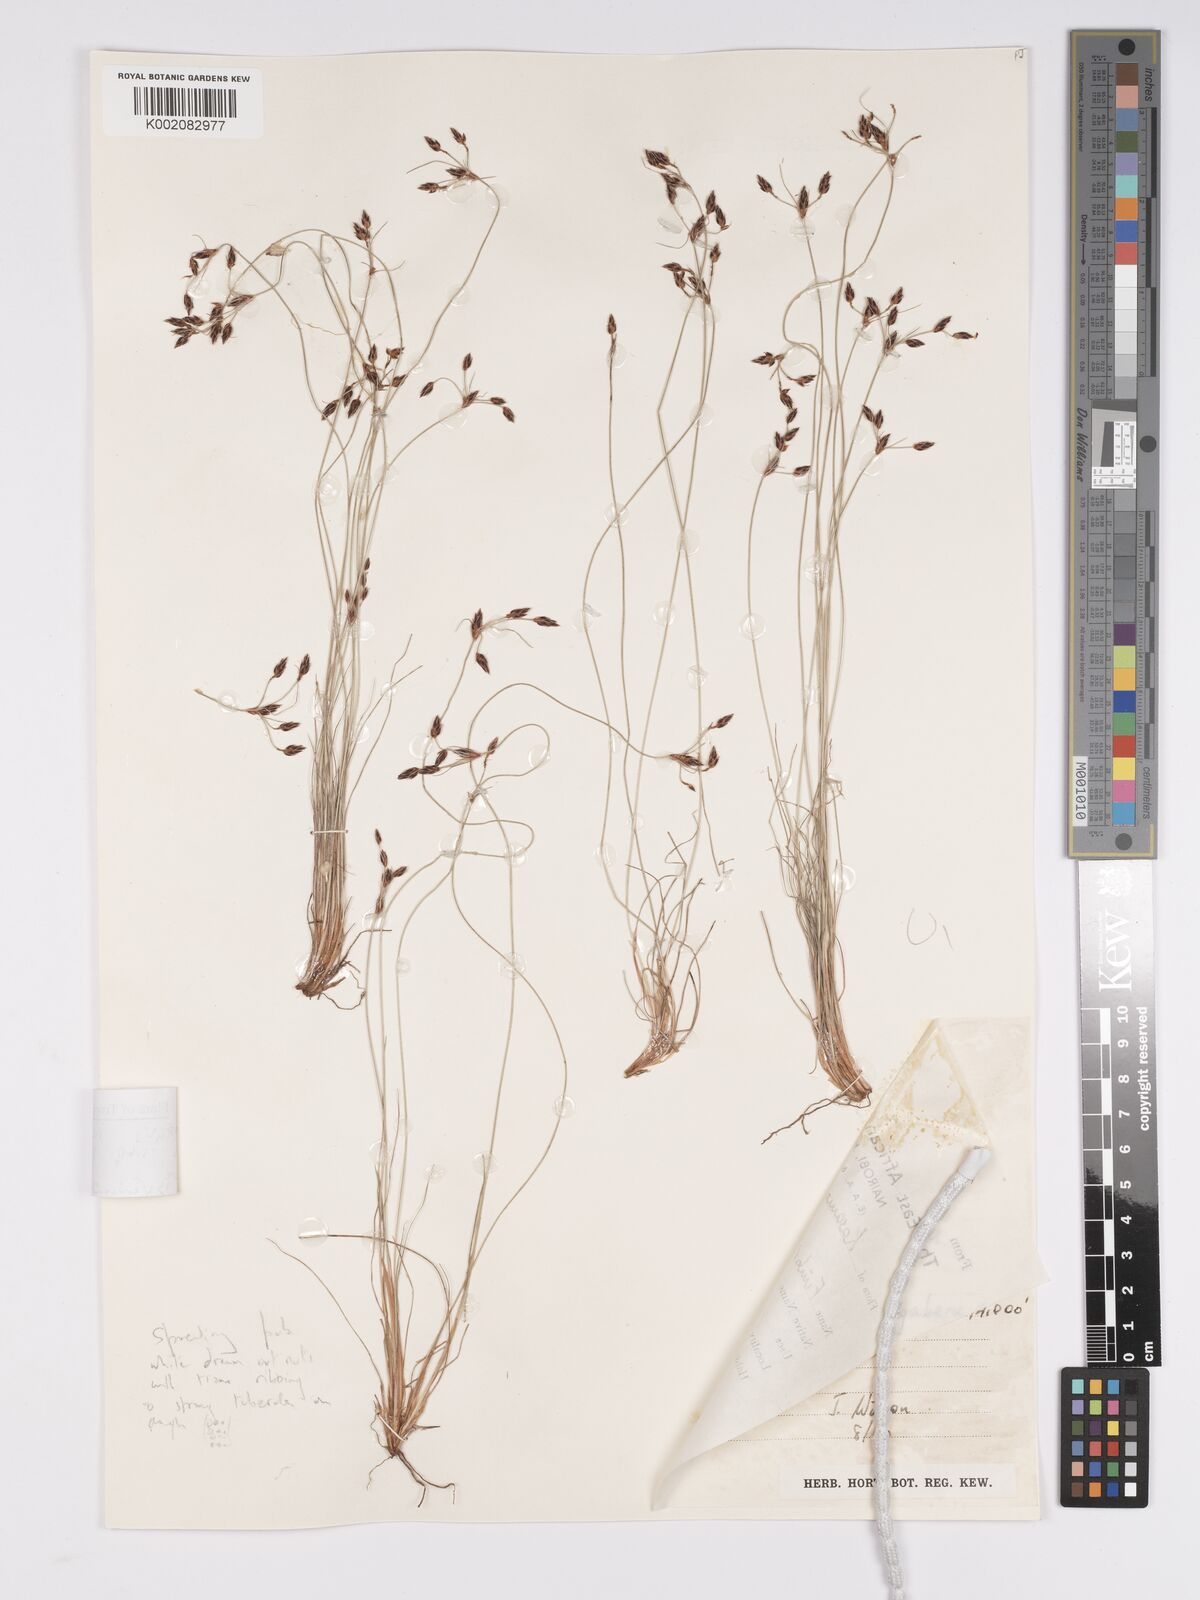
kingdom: Plantae
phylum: Tracheophyta
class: Liliopsida
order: Poales
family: Cyperaceae
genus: Bulbostylis
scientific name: Bulbostylis hispidula
